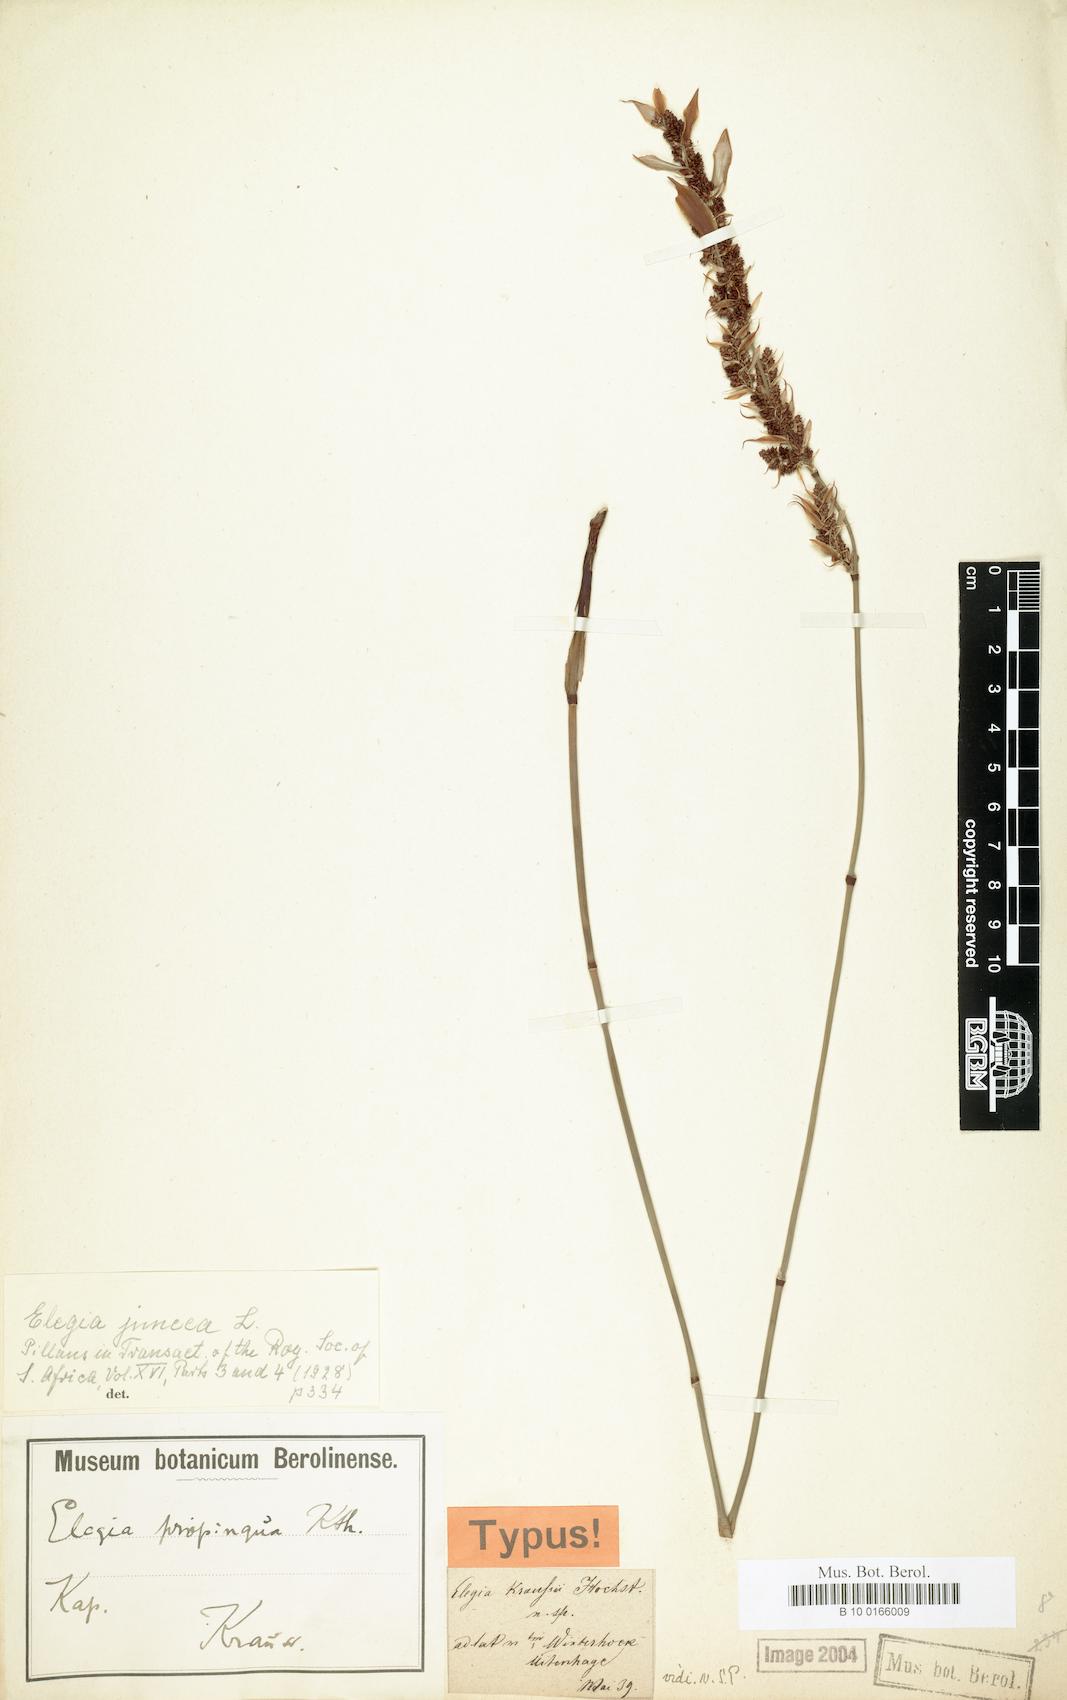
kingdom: Plantae
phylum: Tracheophyta
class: Liliopsida
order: Poales
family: Restionaceae
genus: Elegia
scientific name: Elegia juncea
